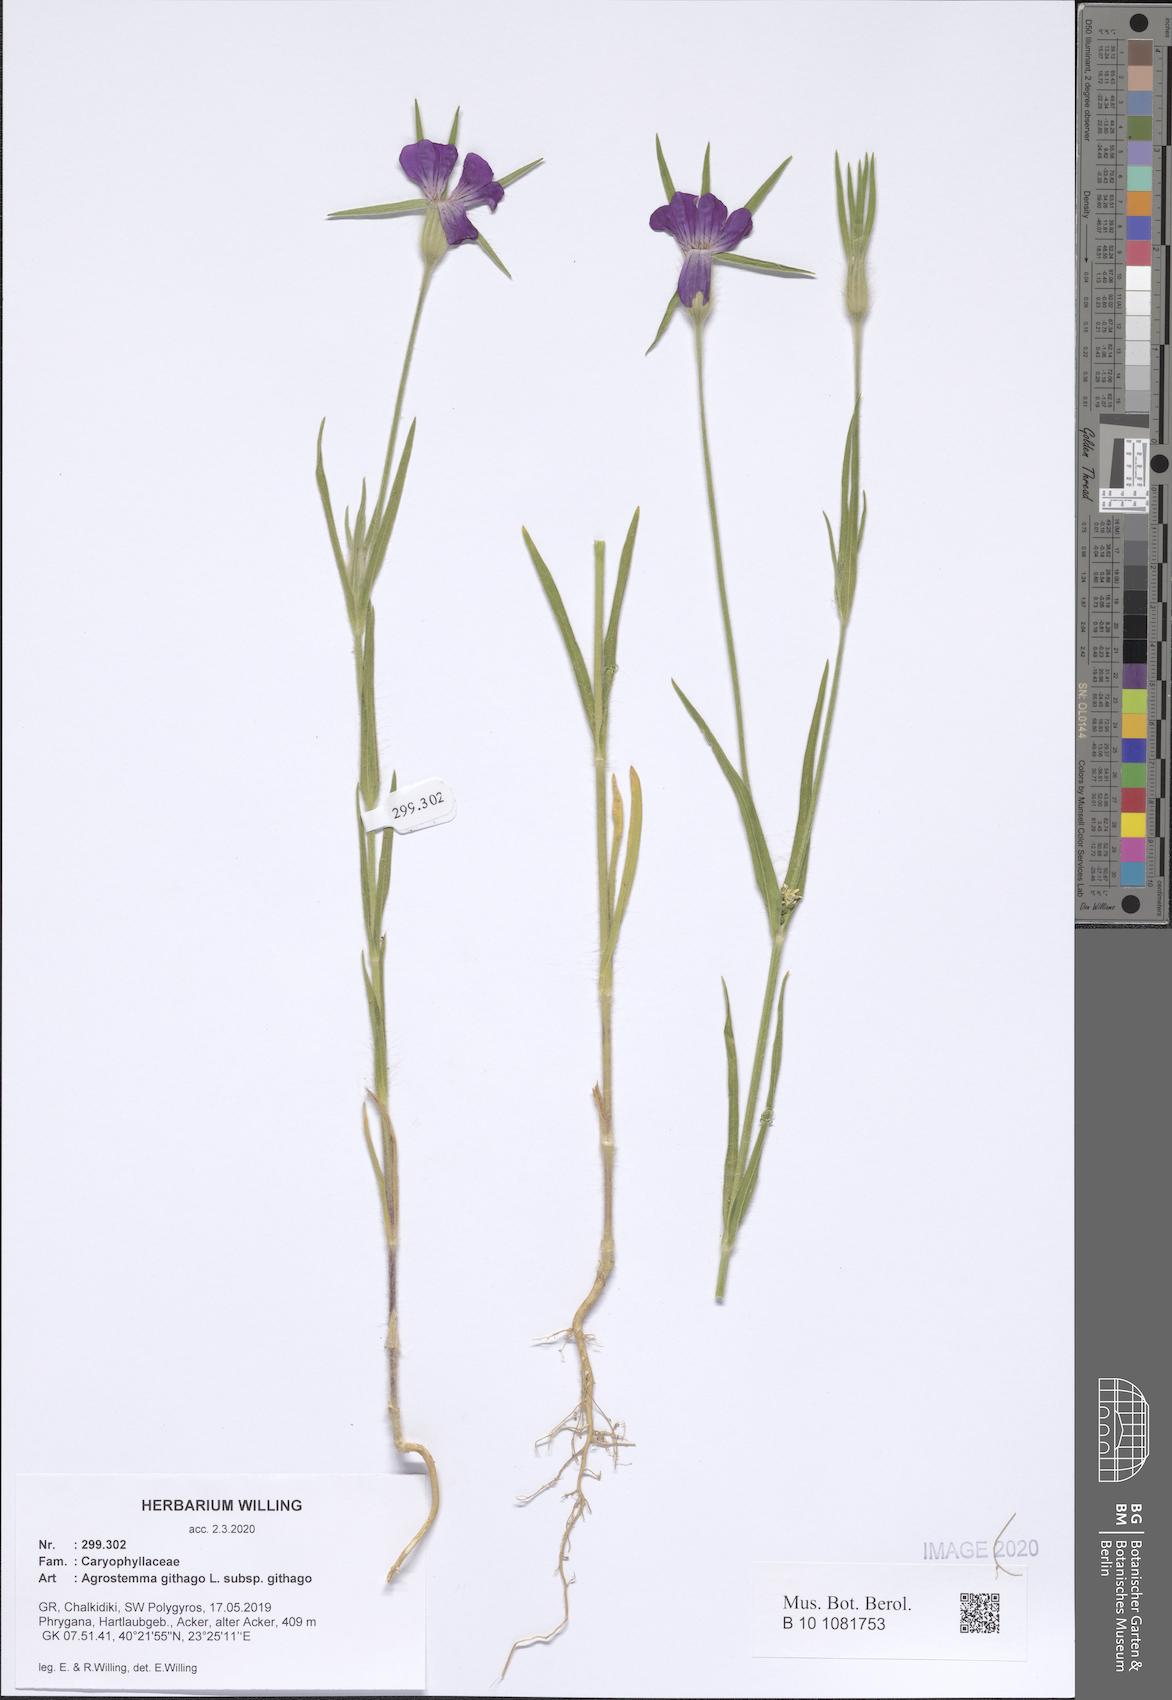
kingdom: Plantae
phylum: Tracheophyta
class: Magnoliopsida
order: Caryophyllales
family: Caryophyllaceae
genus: Agrostemma
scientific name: Agrostemma githago
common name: Common corncockle
